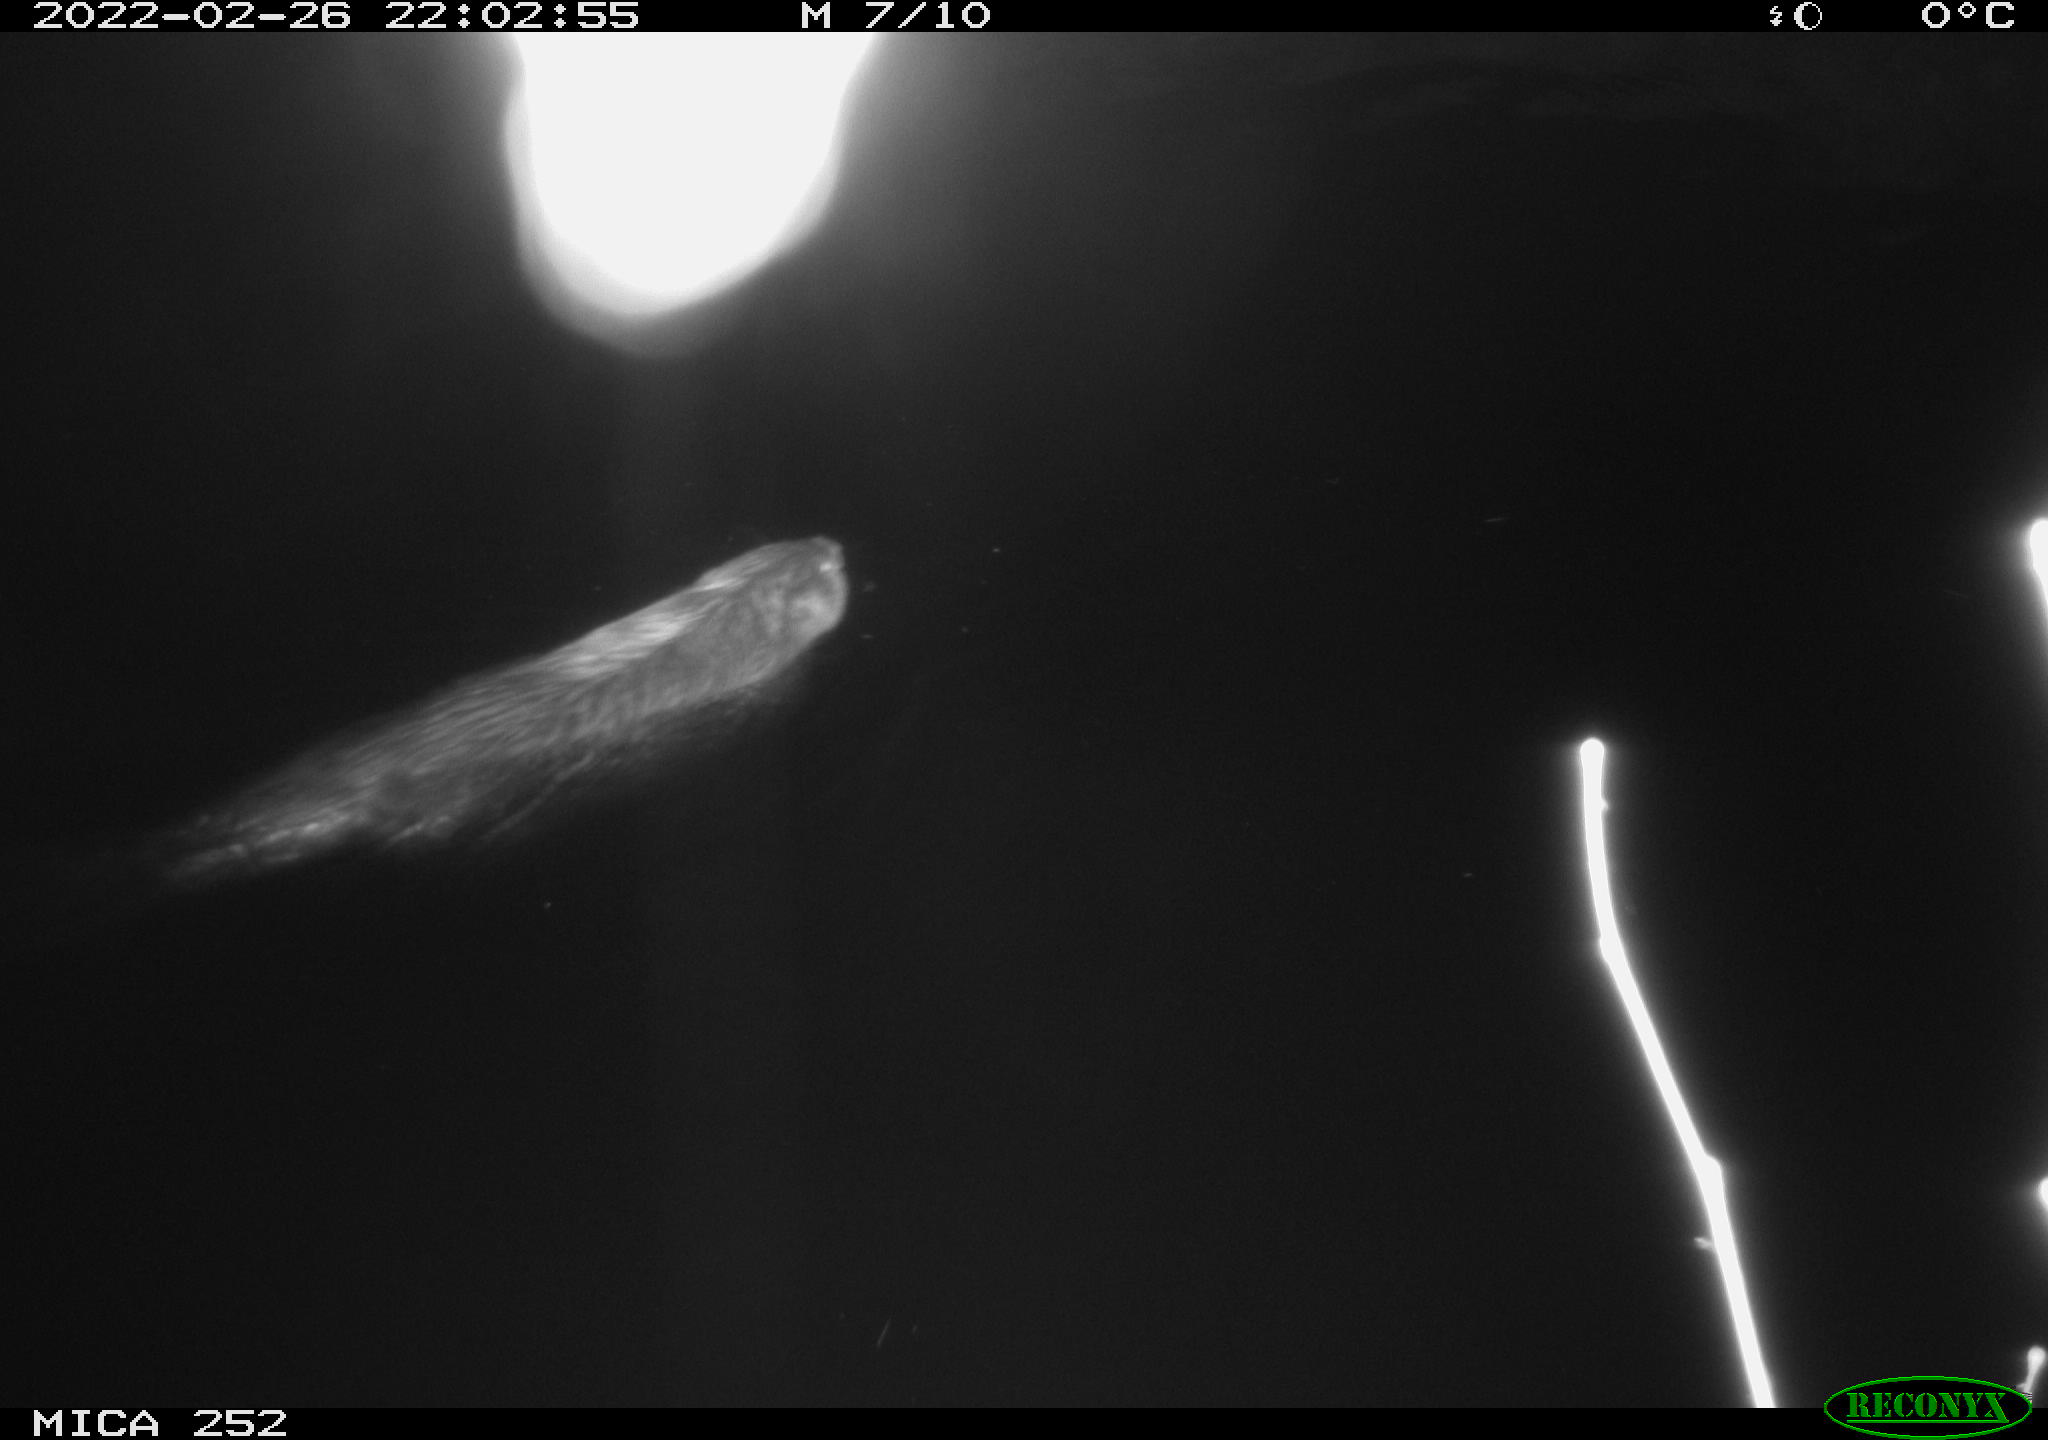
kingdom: Animalia
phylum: Chordata
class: Mammalia
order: Rodentia
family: Castoridae
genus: Castor
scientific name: Castor fiber
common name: Eurasian beaver
